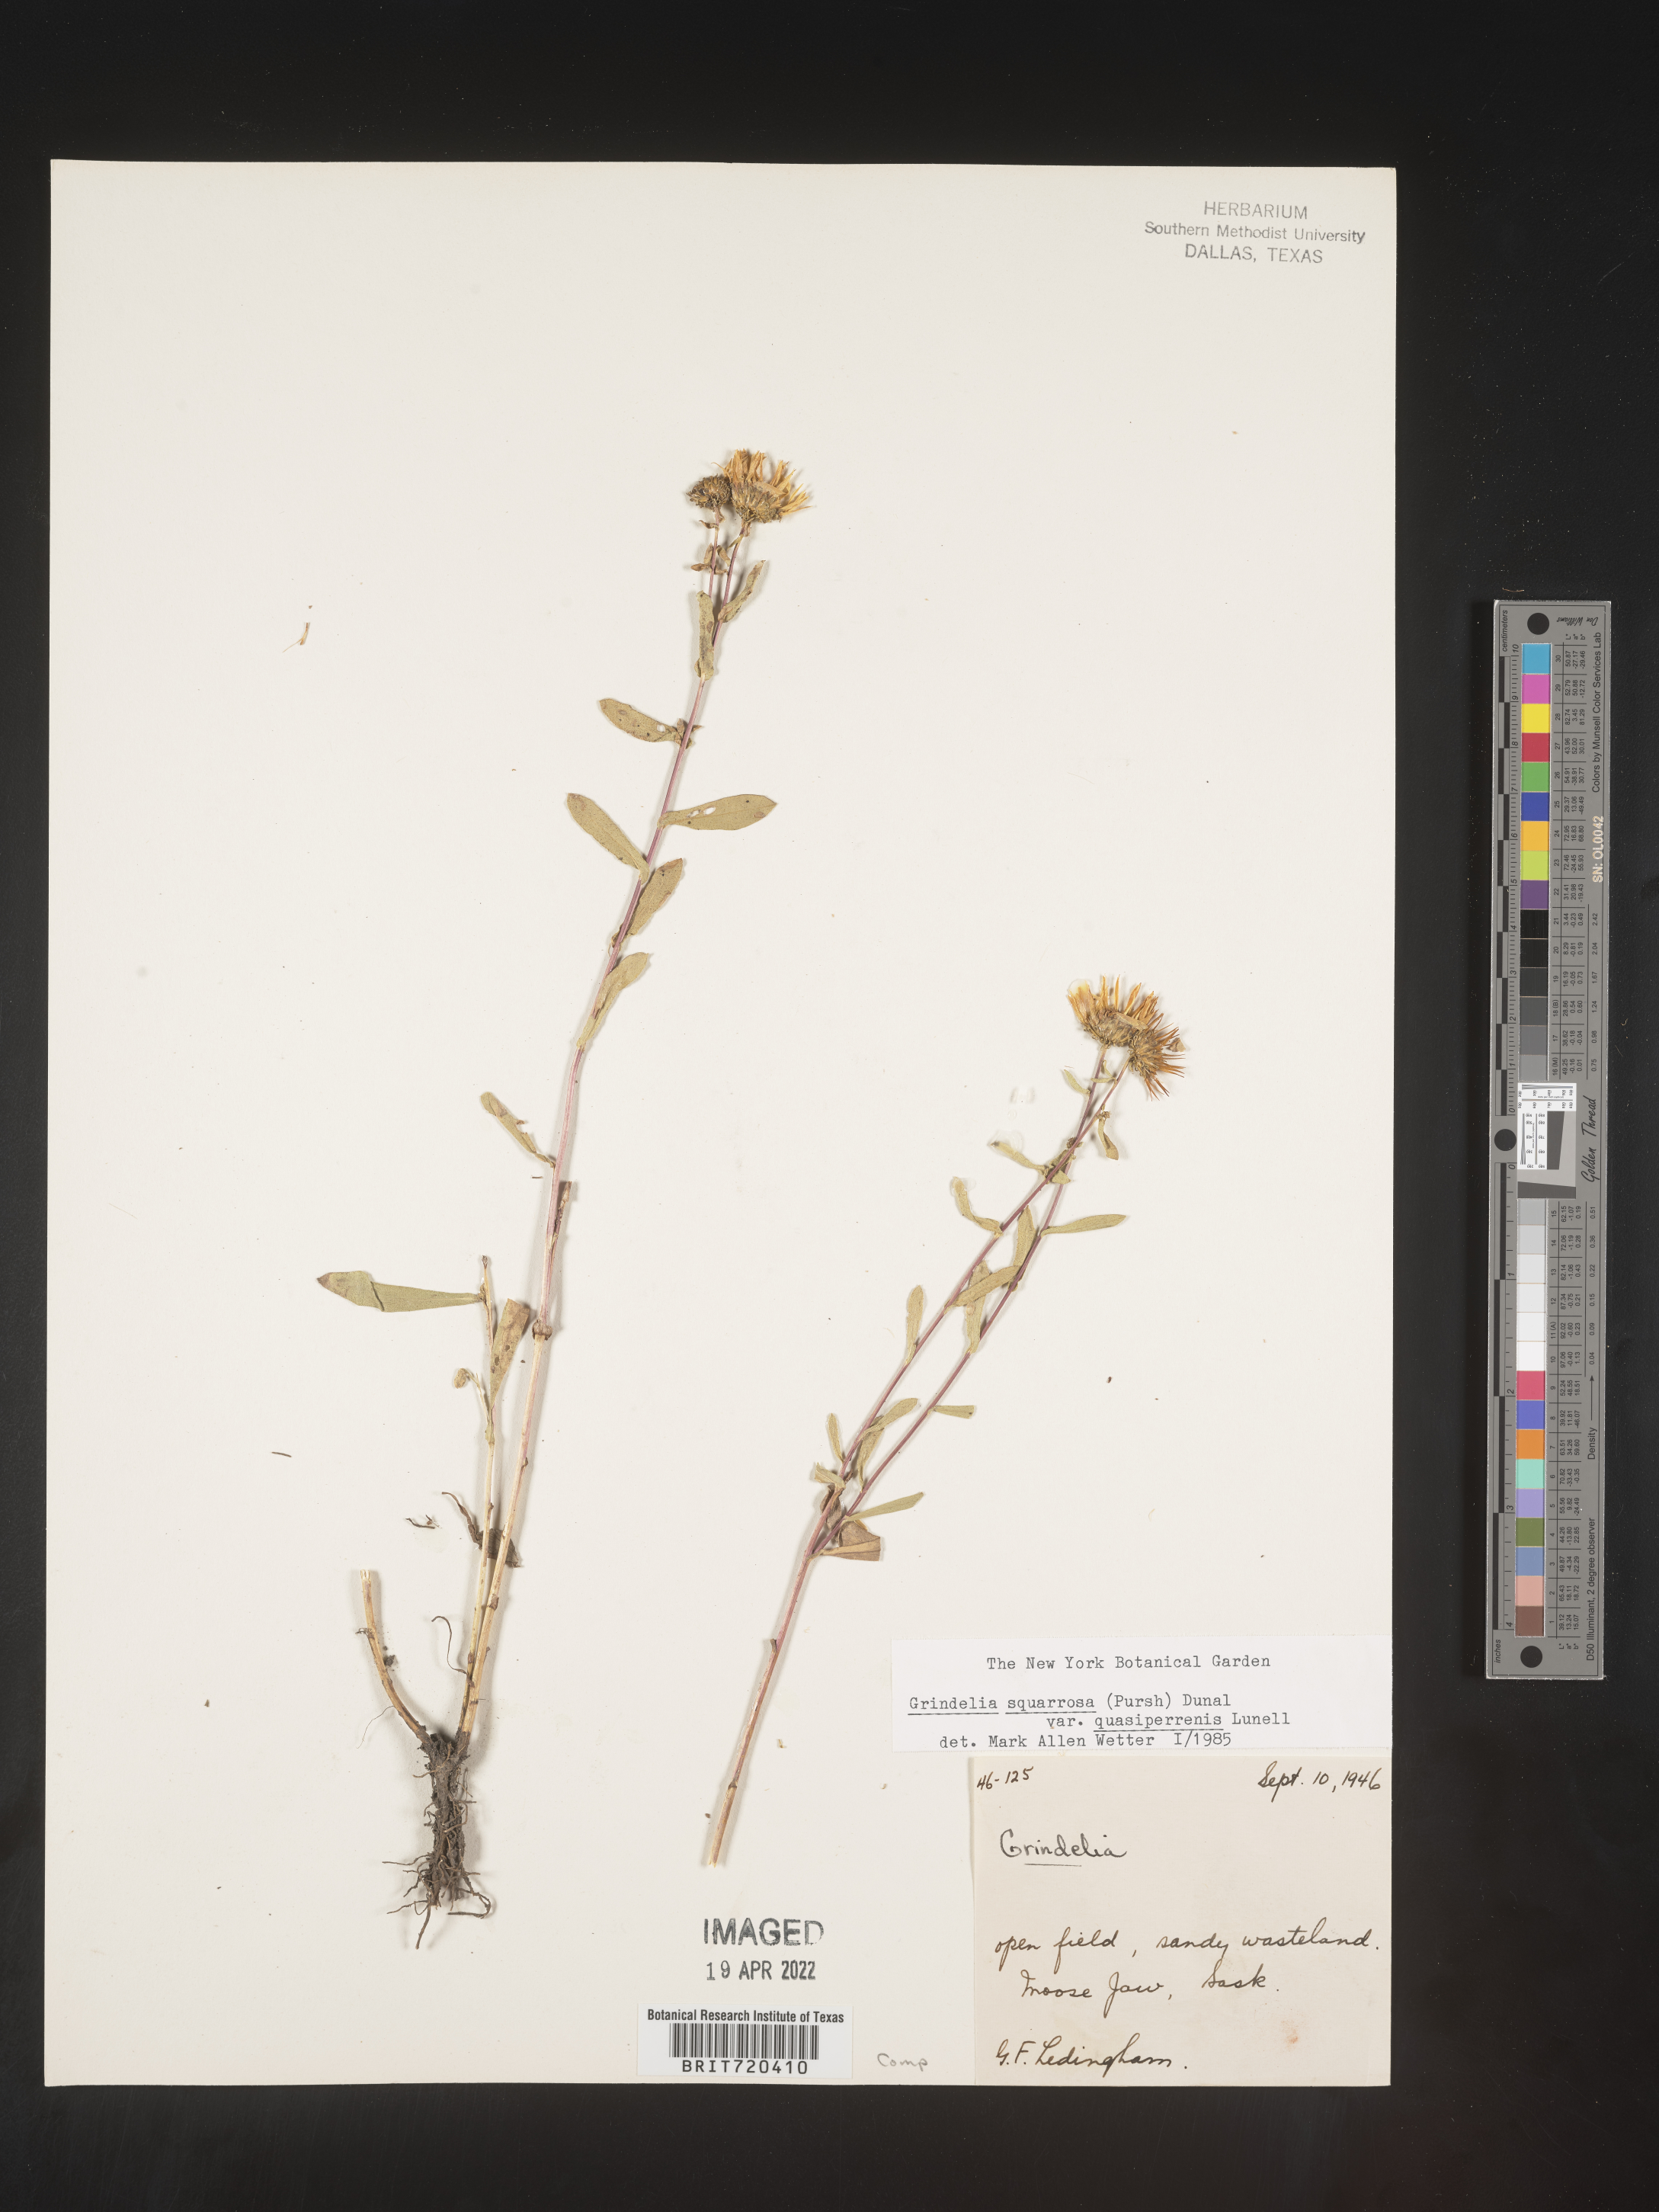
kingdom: Plantae
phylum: Tracheophyta
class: Magnoliopsida
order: Asterales
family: Asteraceae
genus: Grindelia
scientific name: Grindelia squarrosa
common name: Curly-cup gumweed
